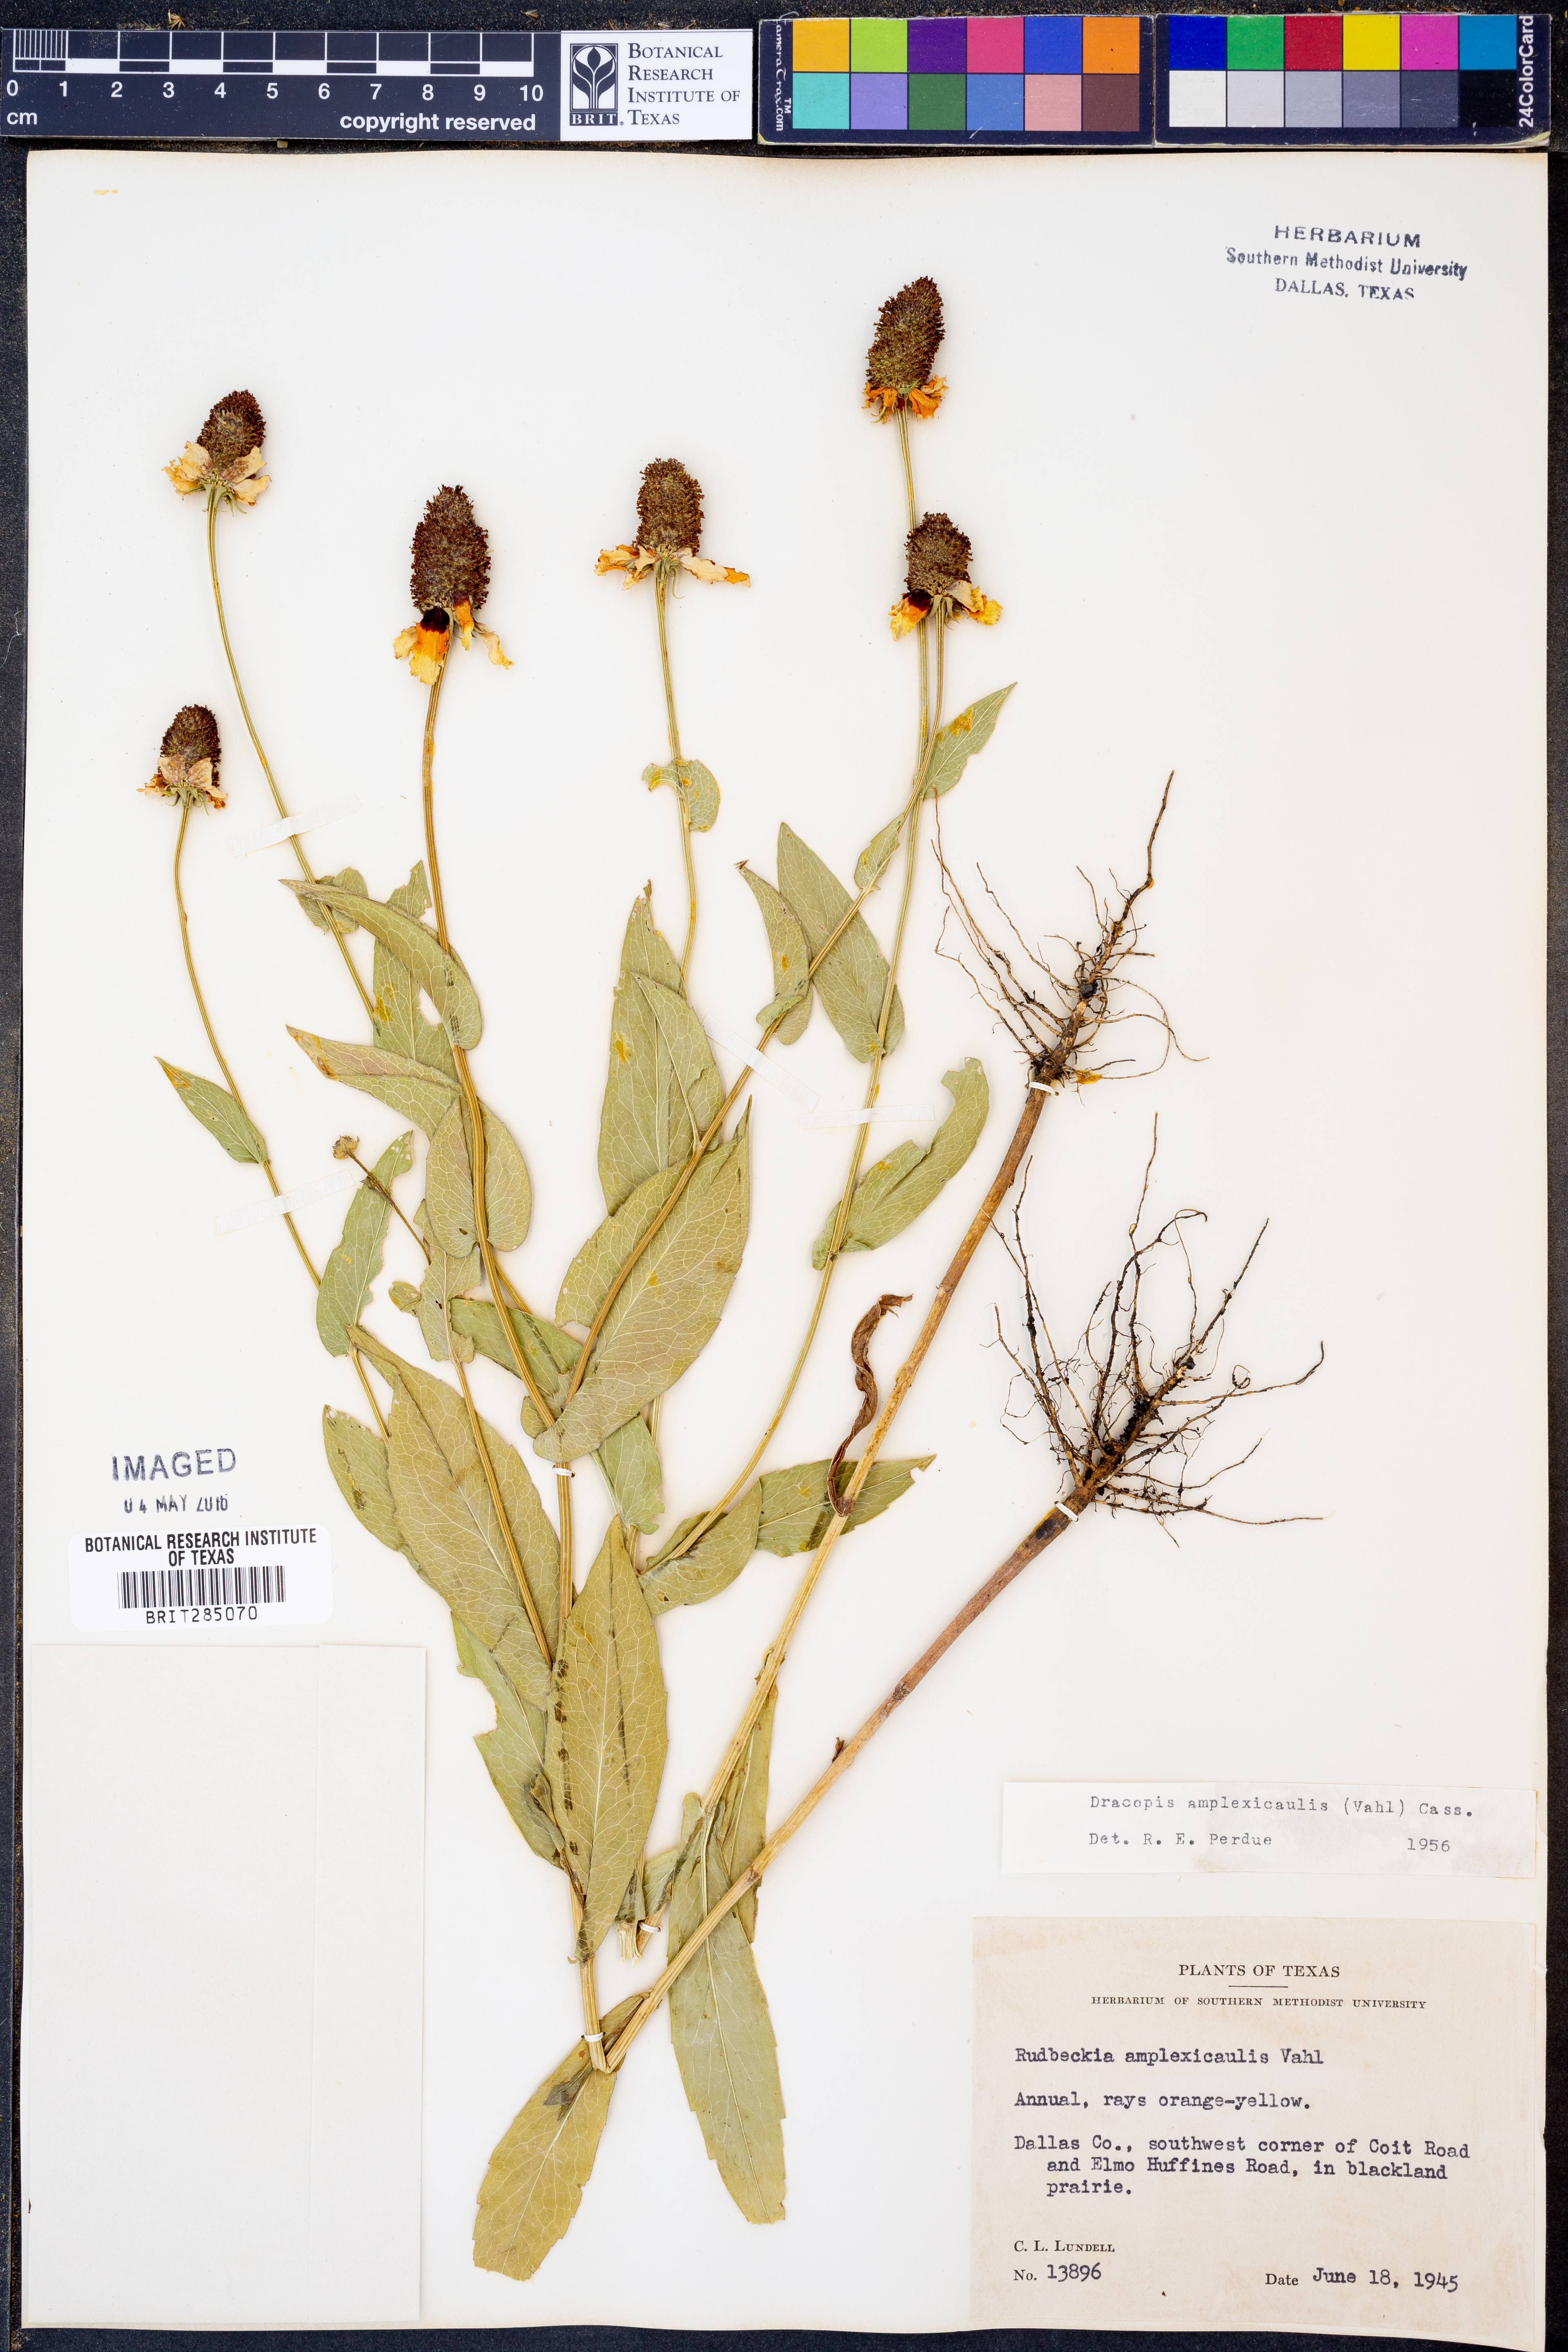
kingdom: Plantae
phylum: Tracheophyta
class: Magnoliopsida
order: Asterales
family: Asteraceae
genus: Rudbeckia
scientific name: Rudbeckia amplexicaulis
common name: Clasping-leaf coneflower
